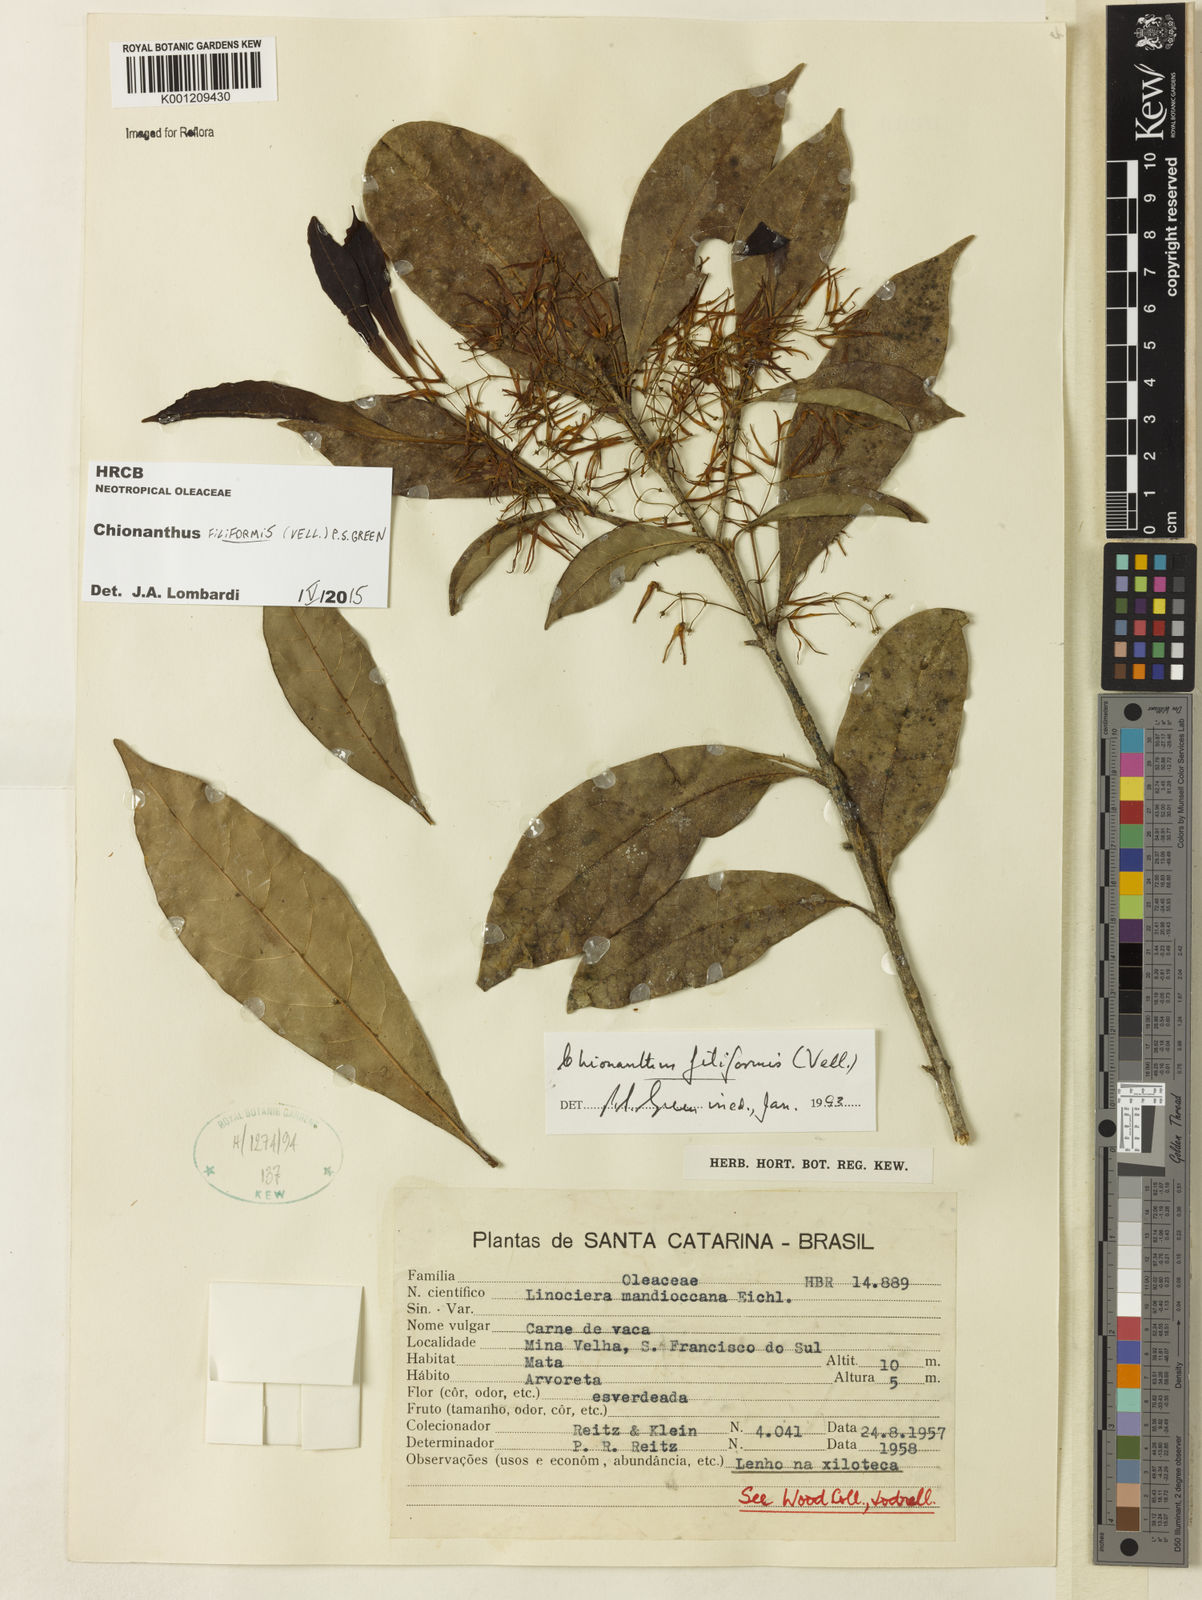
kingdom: Plantae
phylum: Tracheophyta
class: Magnoliopsida
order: Lamiales
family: Oleaceae
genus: Chionanthus
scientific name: Chionanthus filiformis
